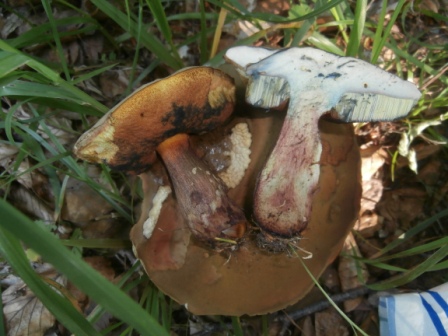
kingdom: Fungi
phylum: Basidiomycota
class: Agaricomycetes
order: Boletales
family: Boletaceae
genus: Suillellus
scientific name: Suillellus luridus
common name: netstokket indigorørhat
